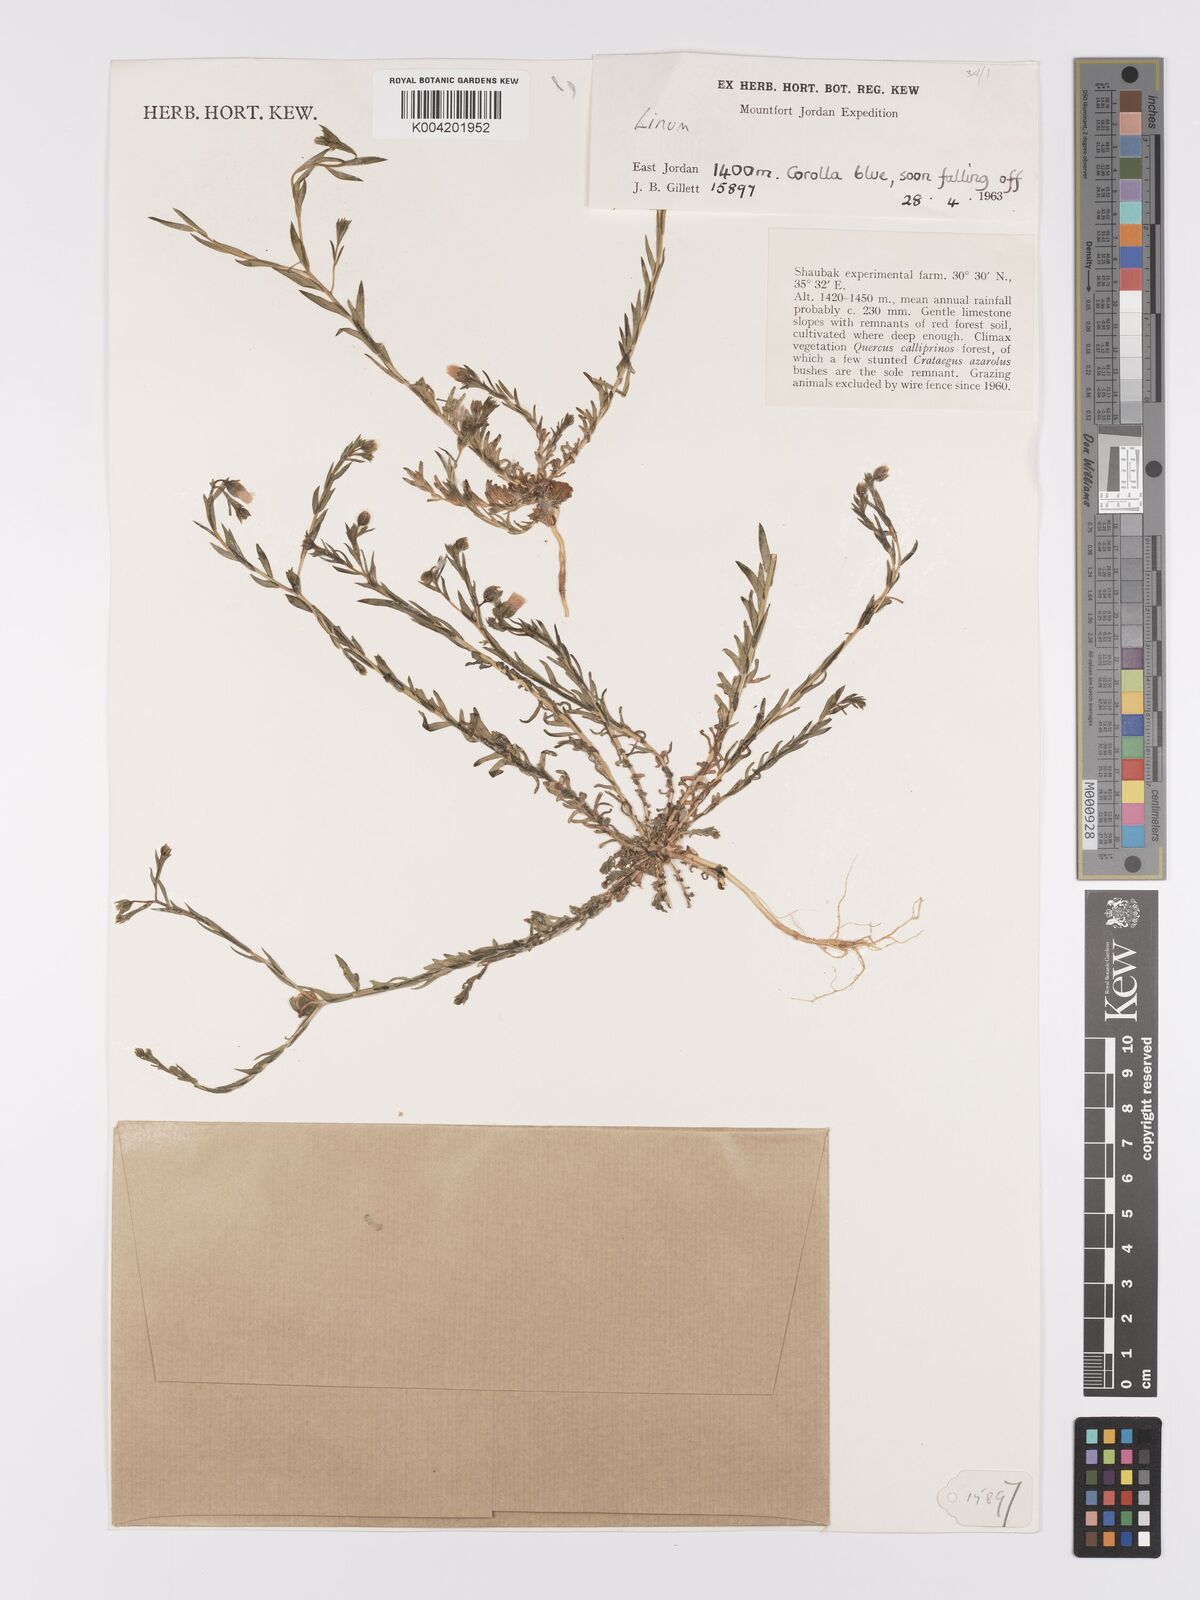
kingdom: Plantae
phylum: Tracheophyta
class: Magnoliopsida
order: Malpighiales
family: Linaceae
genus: Linum
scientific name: Linum
